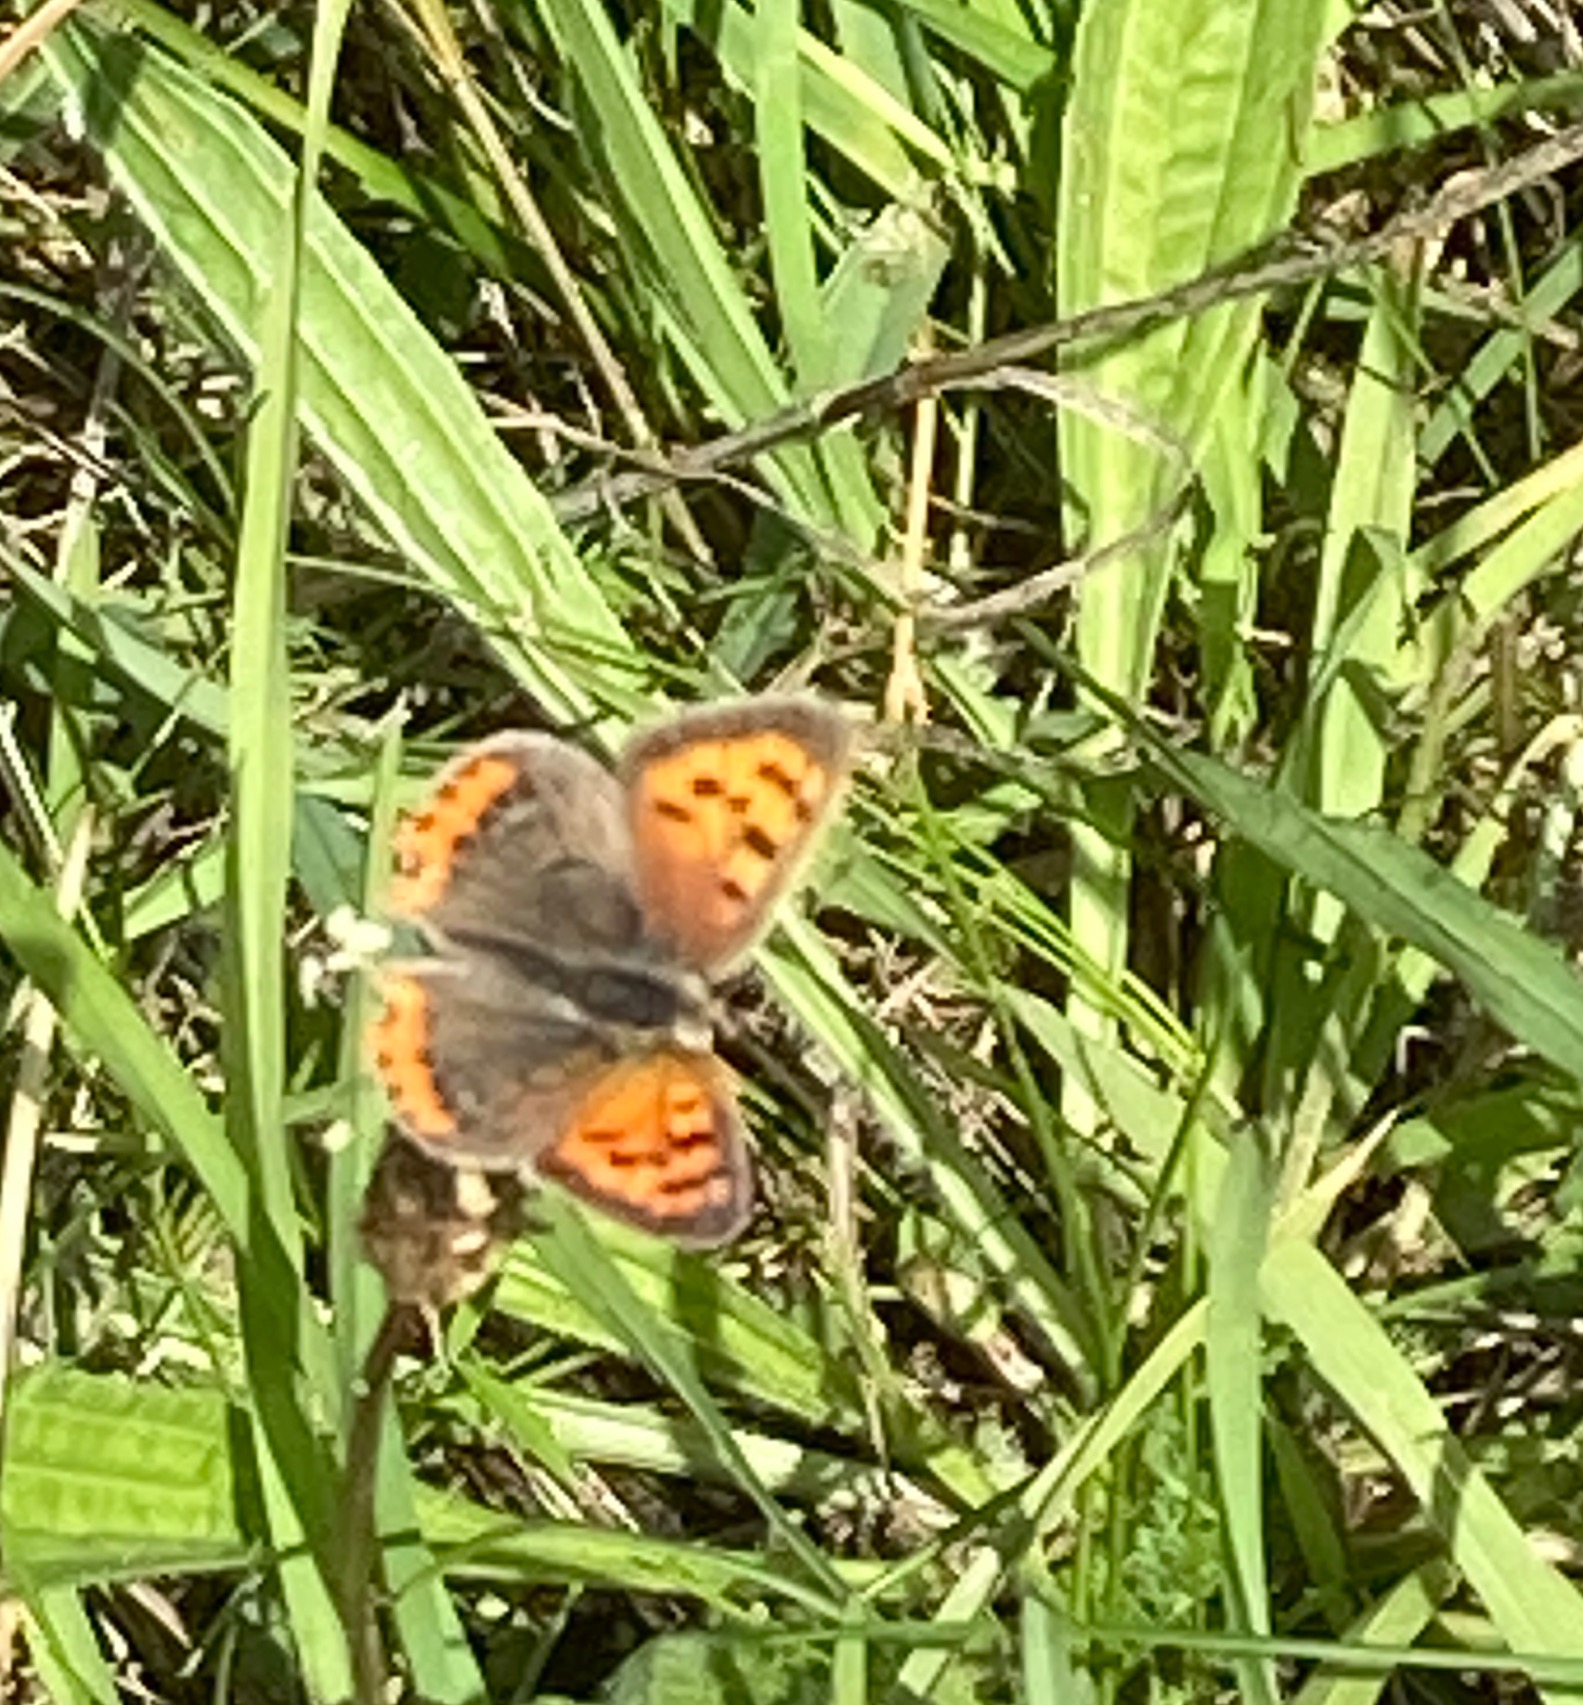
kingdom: Animalia
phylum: Arthropoda
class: Insecta
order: Lepidoptera
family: Lycaenidae
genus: Lycaena
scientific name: Lycaena phlaeas
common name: Lille ildfugl
